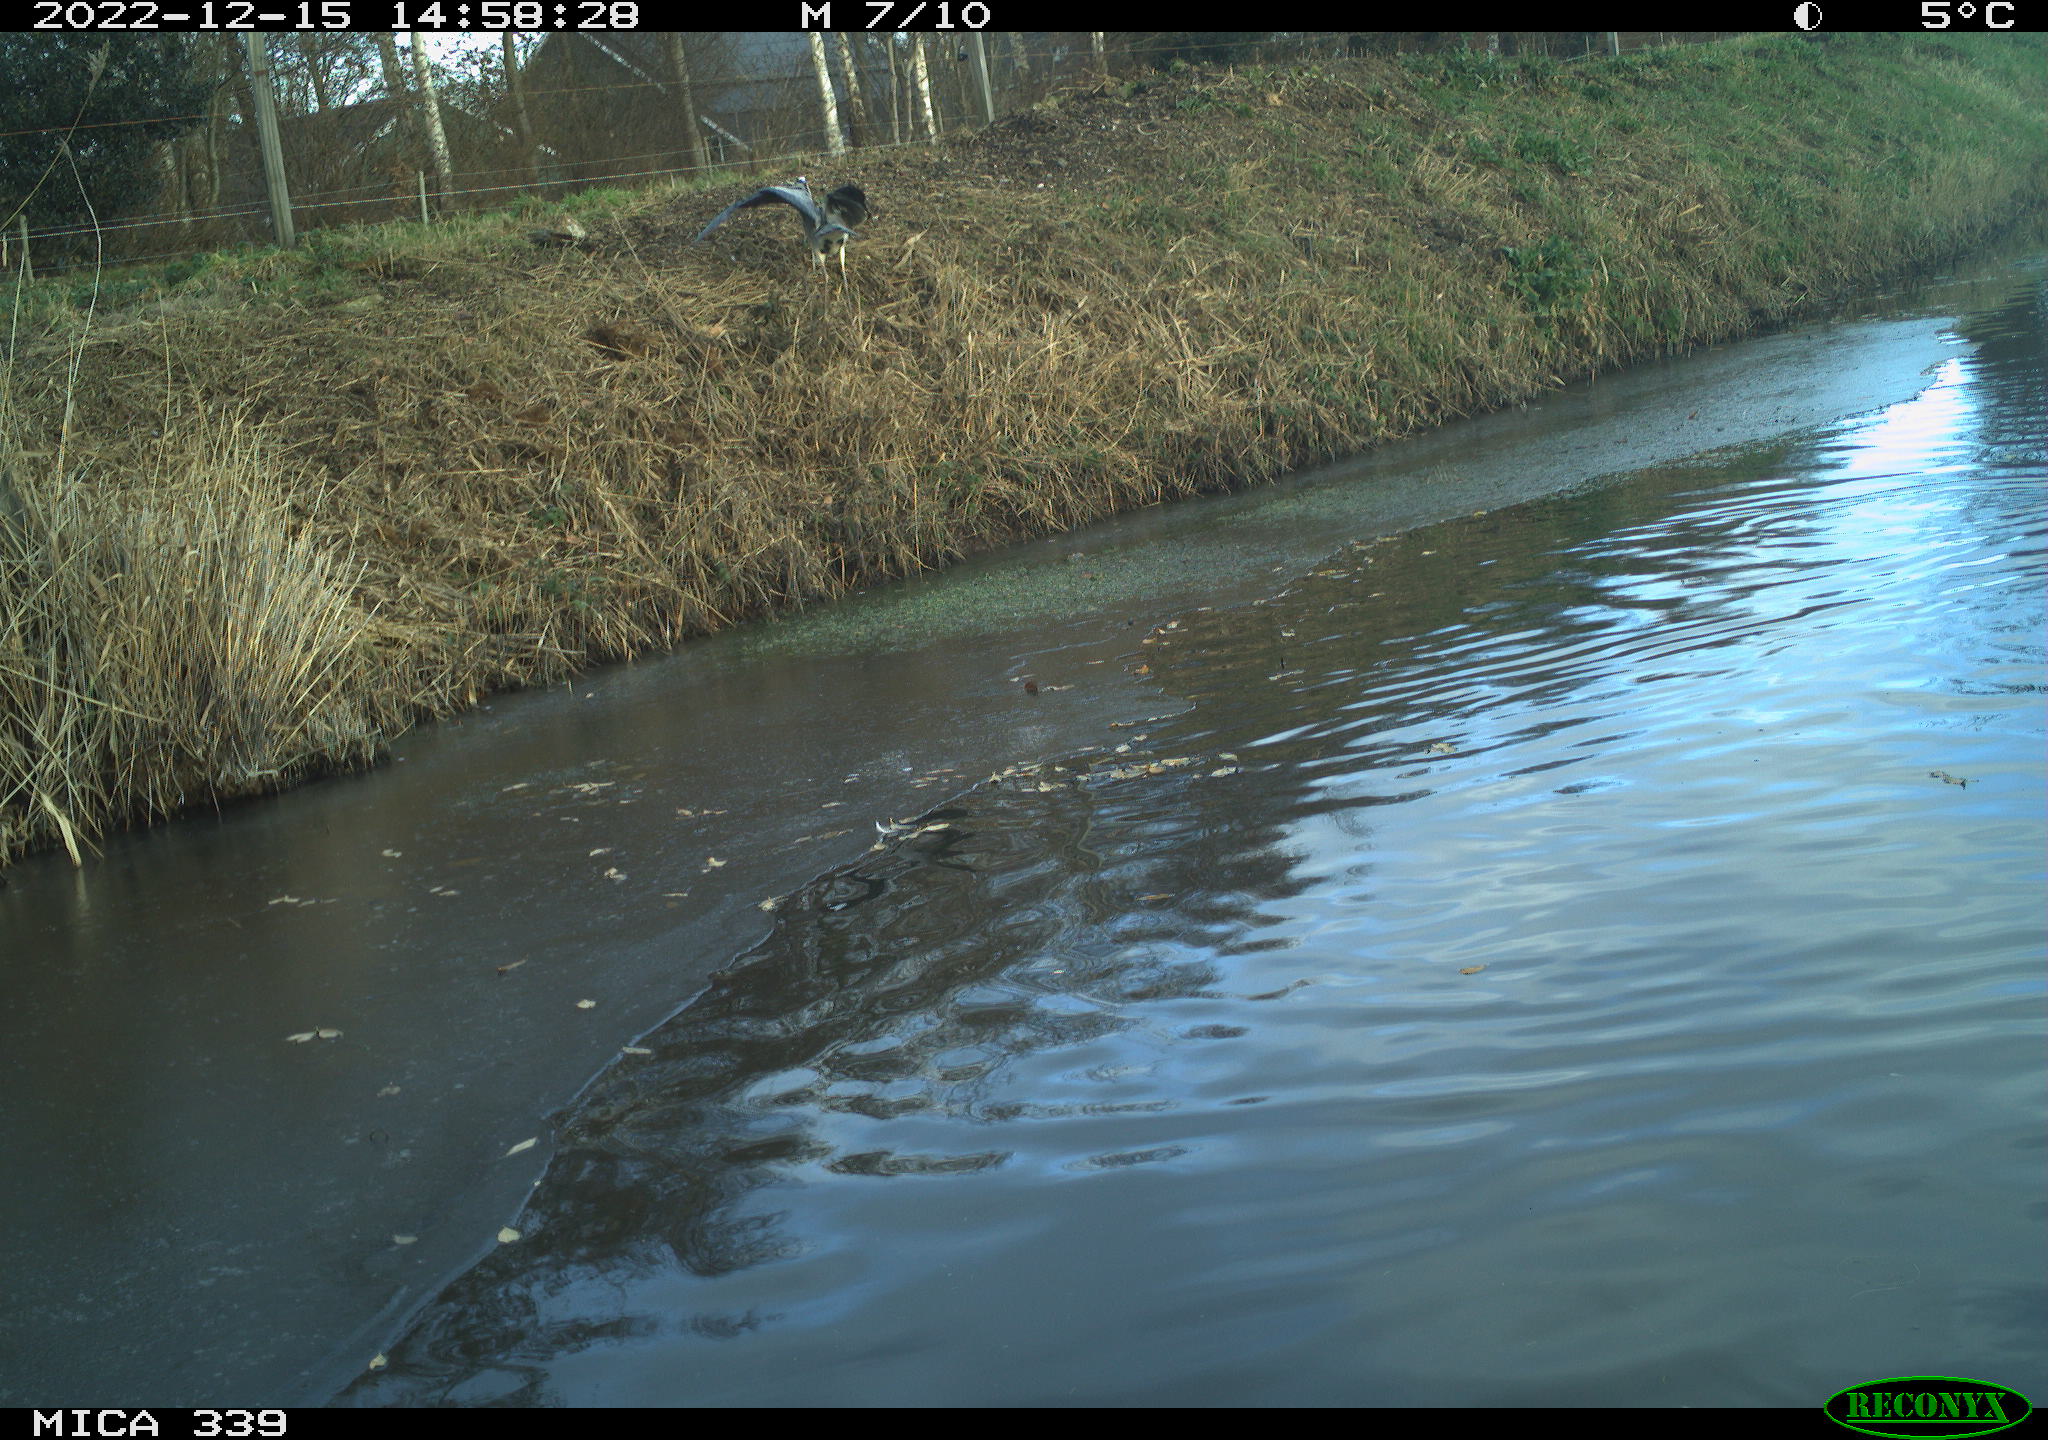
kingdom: Animalia
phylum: Chordata
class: Aves
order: Pelecaniformes
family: Ardeidae
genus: Ardea
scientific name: Ardea cinerea
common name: Grey heron
